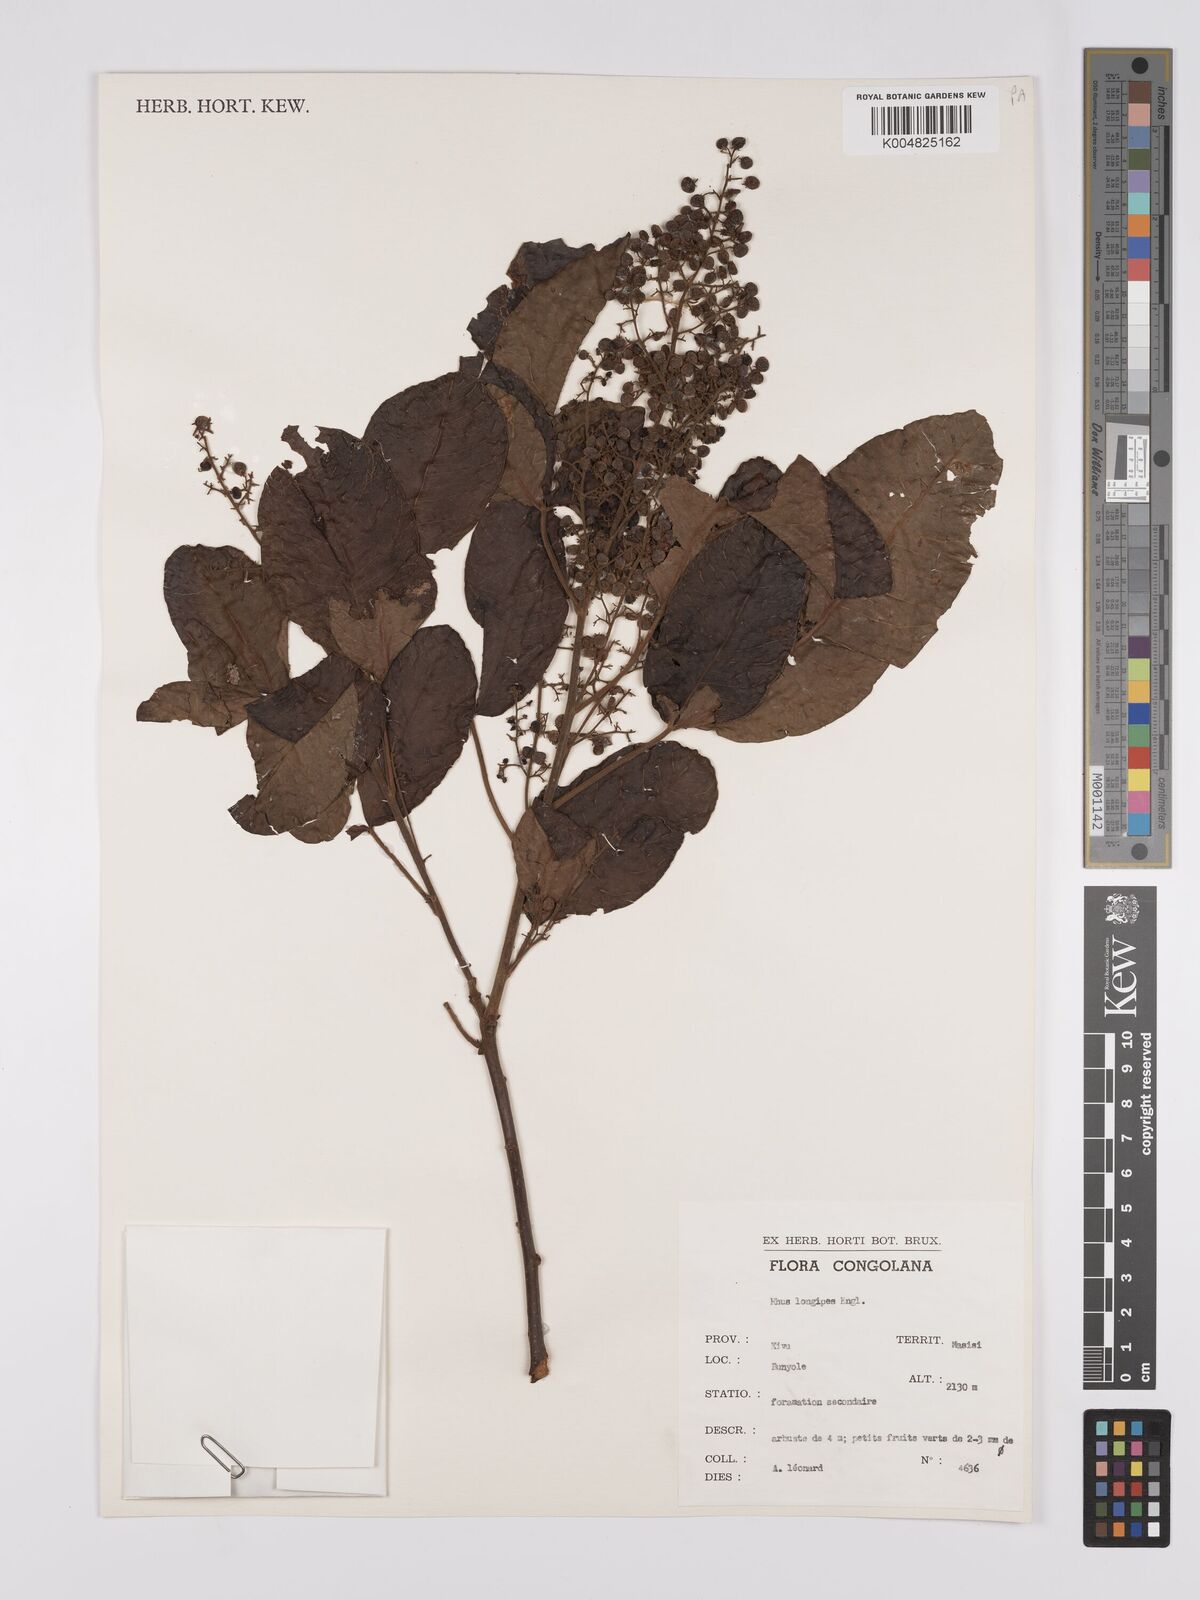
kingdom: Plantae
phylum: Tracheophyta
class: Magnoliopsida
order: Sapindales
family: Anacardiaceae
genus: Searsia
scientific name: Searsia longipes
